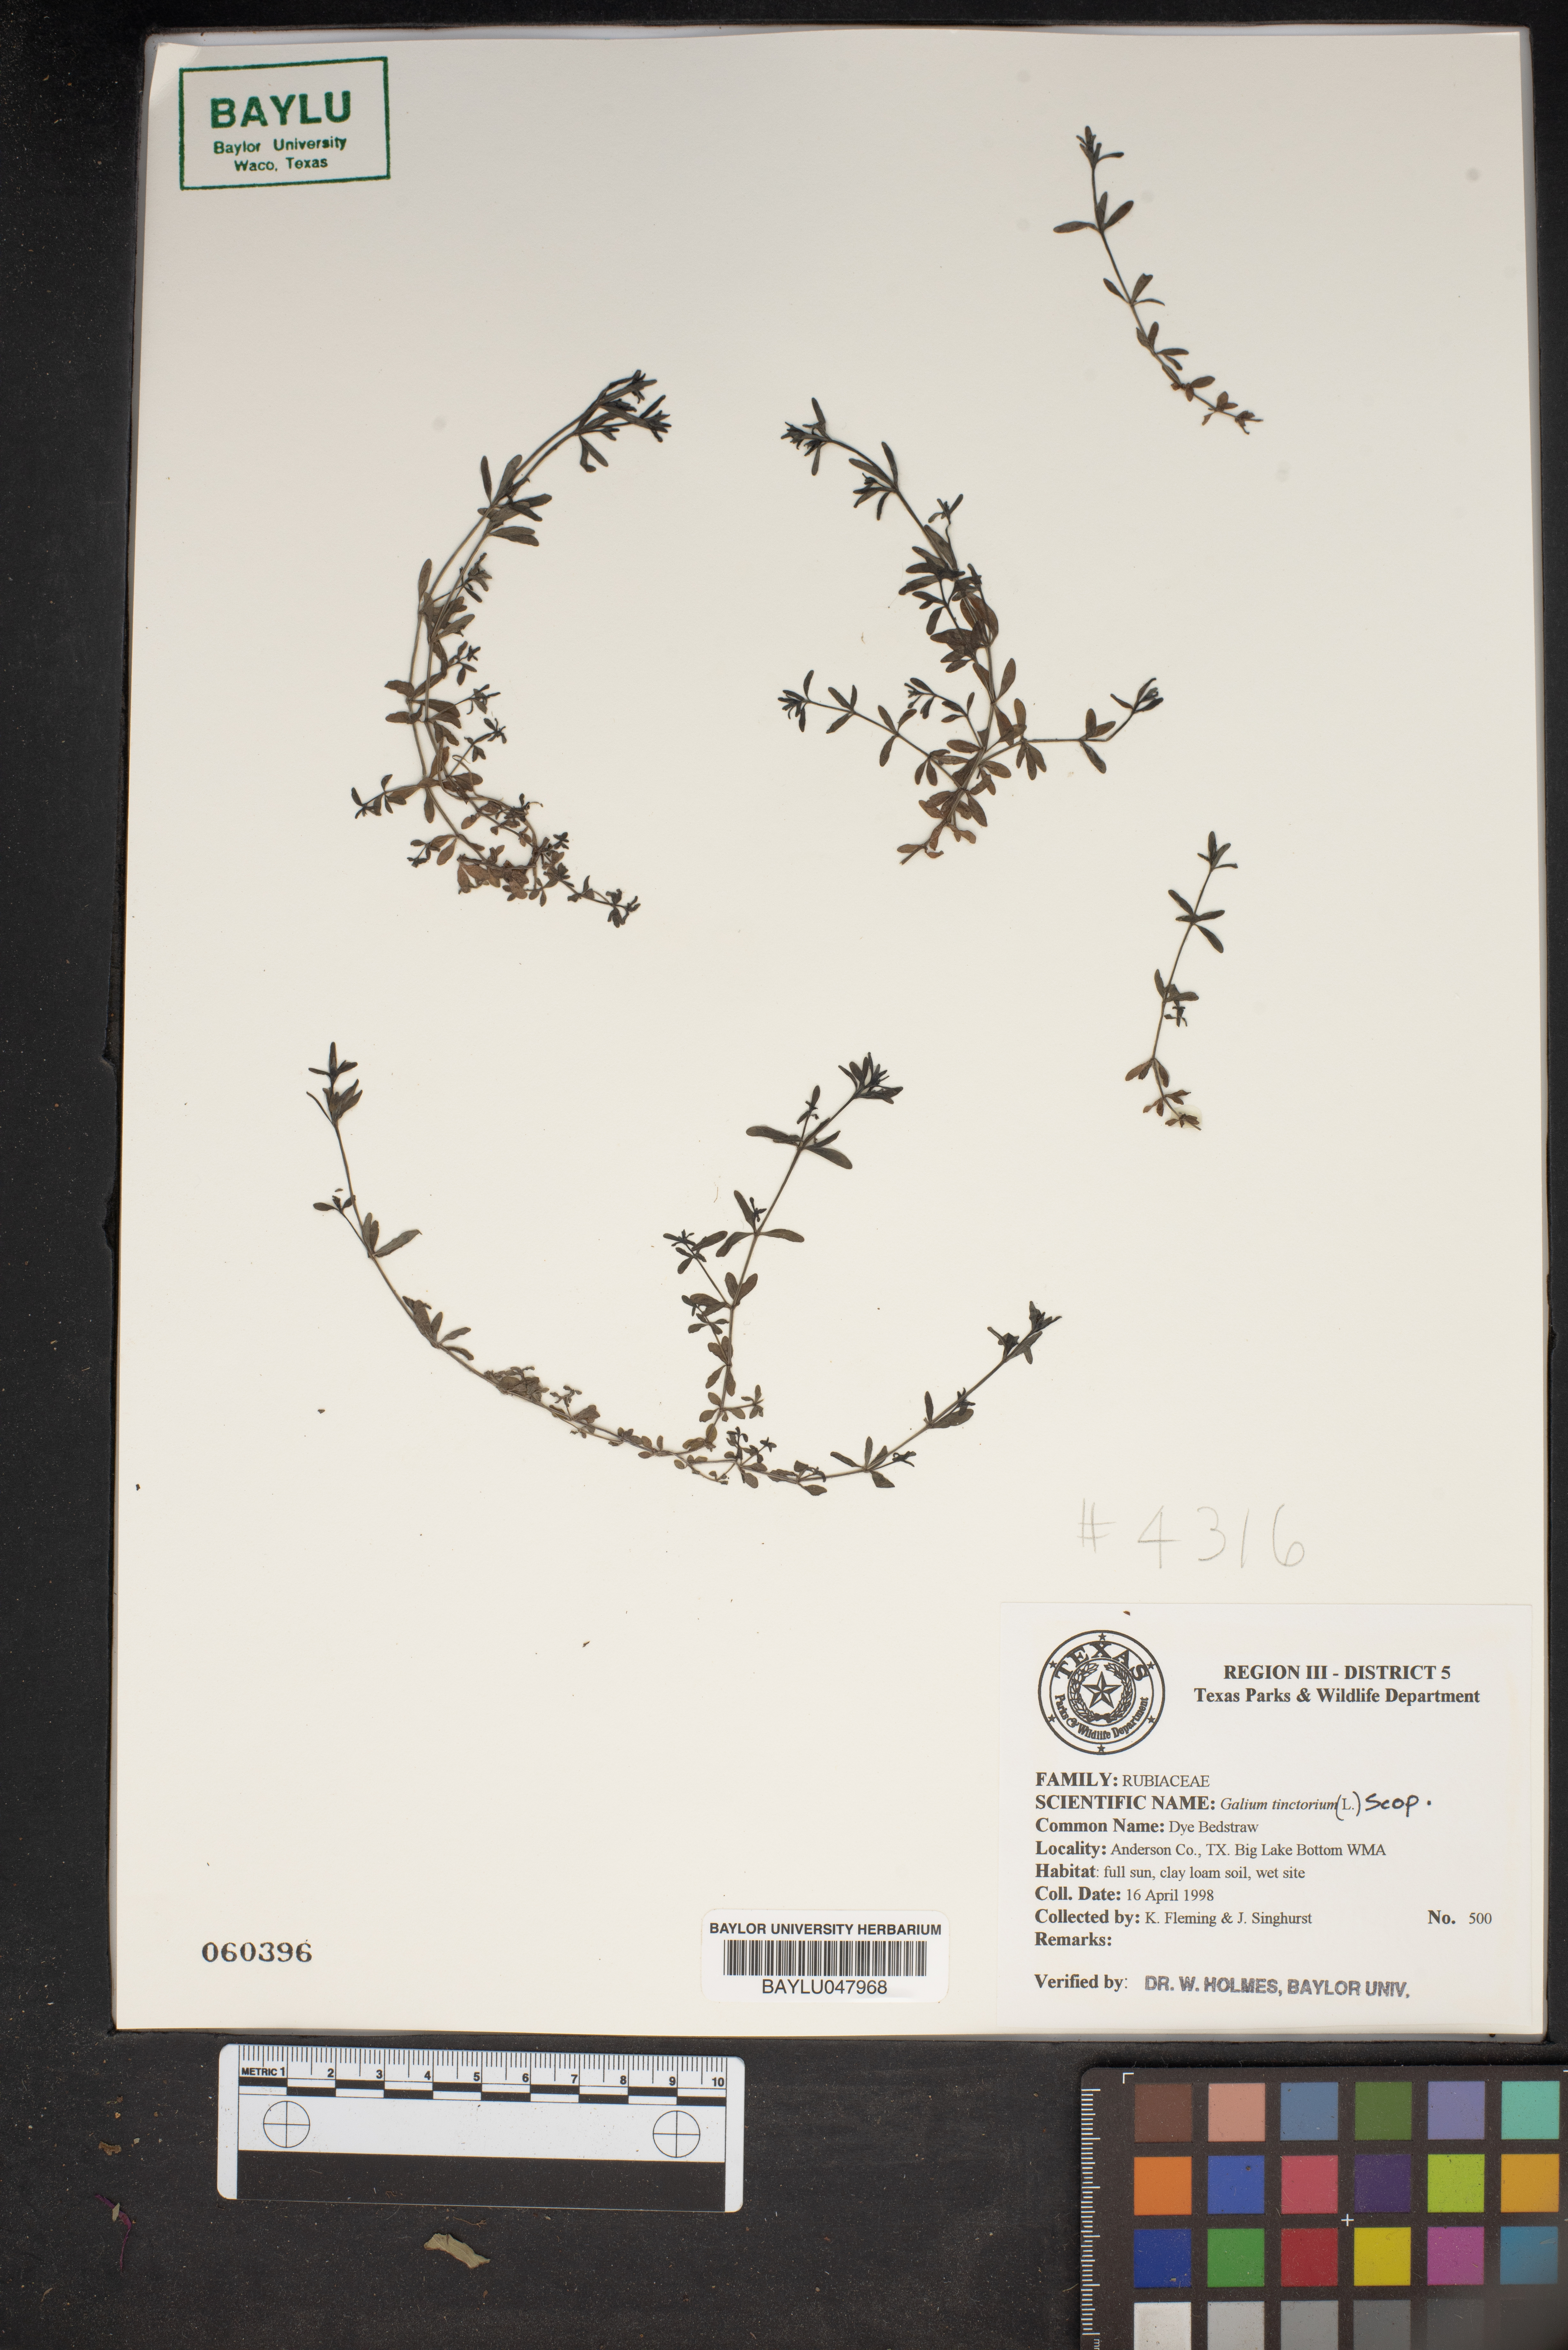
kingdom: Plantae
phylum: Tracheophyta
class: Magnoliopsida
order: Gentianales
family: Rubiaceae
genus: Asperula
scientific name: Asperula tinctoria
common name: Dyer's woodruff
